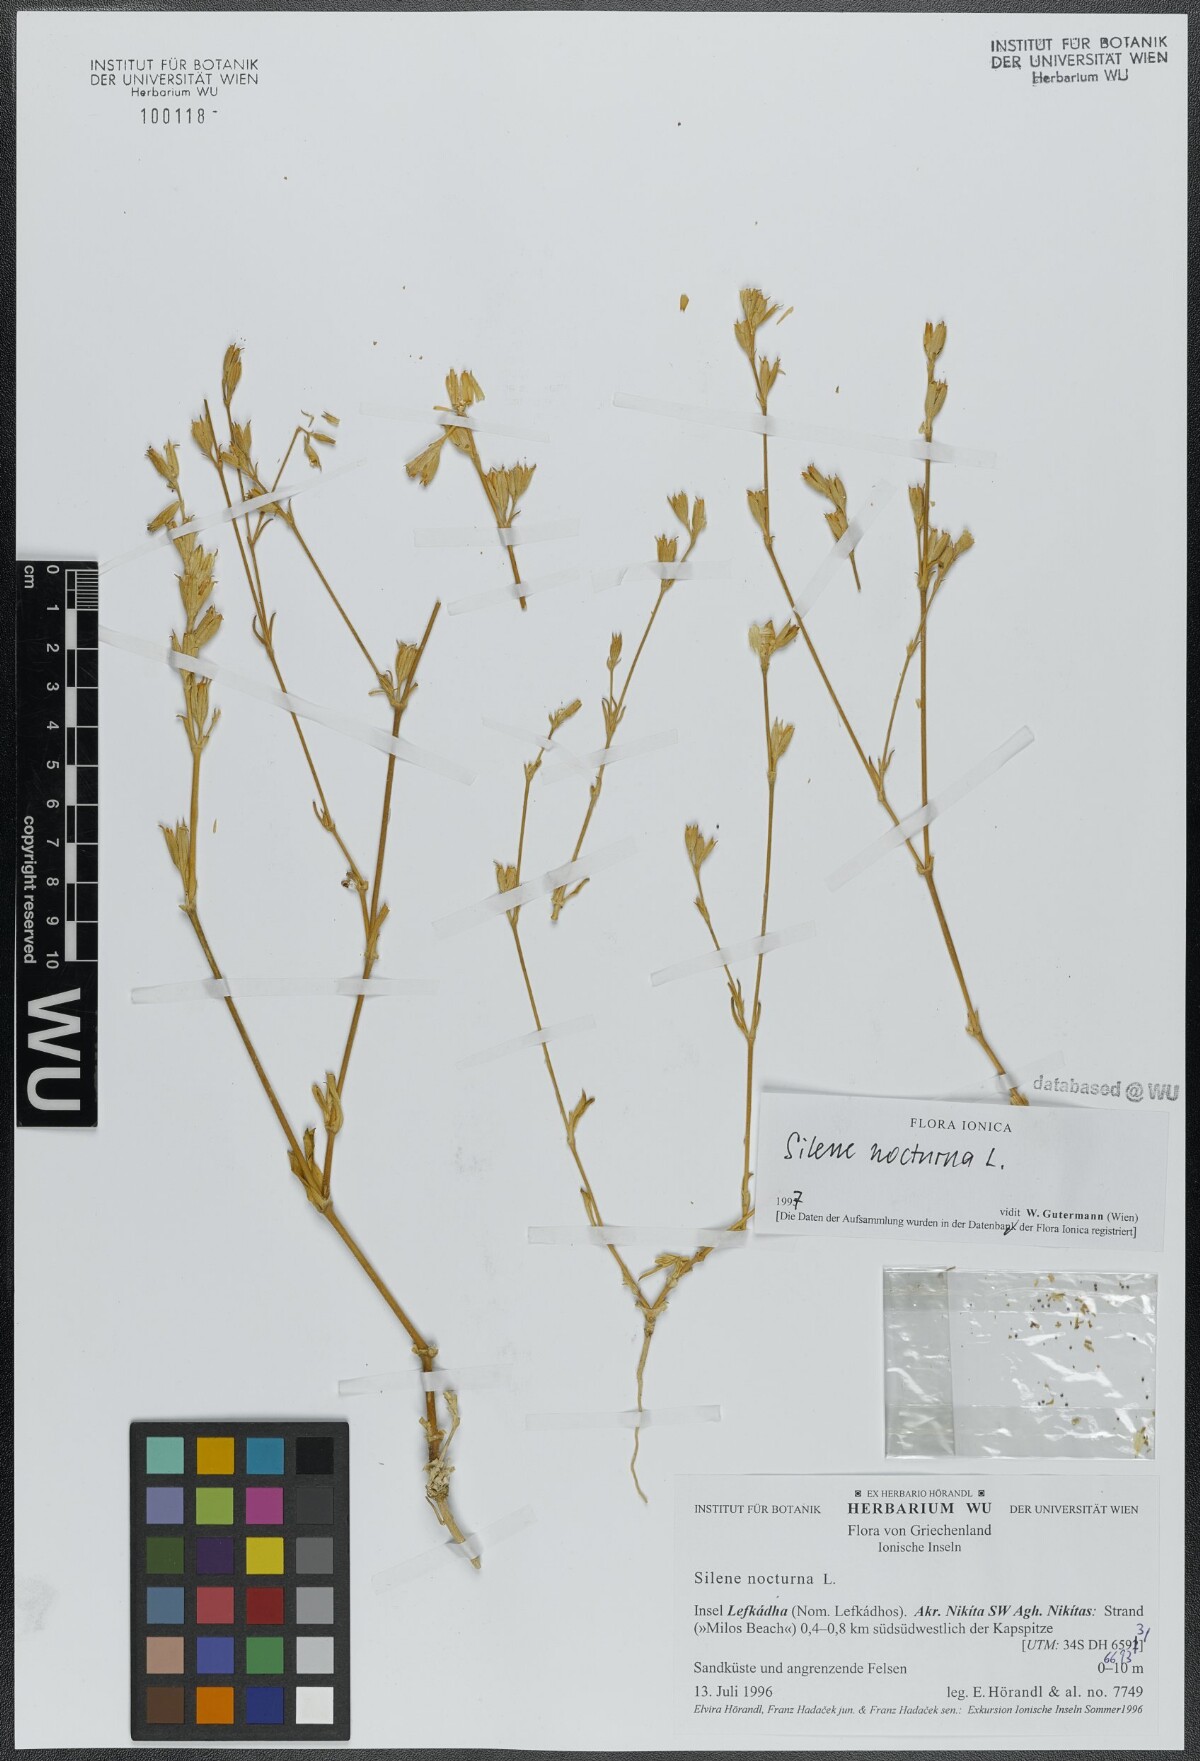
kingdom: Plantae
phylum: Tracheophyta
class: Magnoliopsida
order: Caryophyllales
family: Caryophyllaceae
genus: Silene
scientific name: Silene nocturna
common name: Mediterranean catchfly
